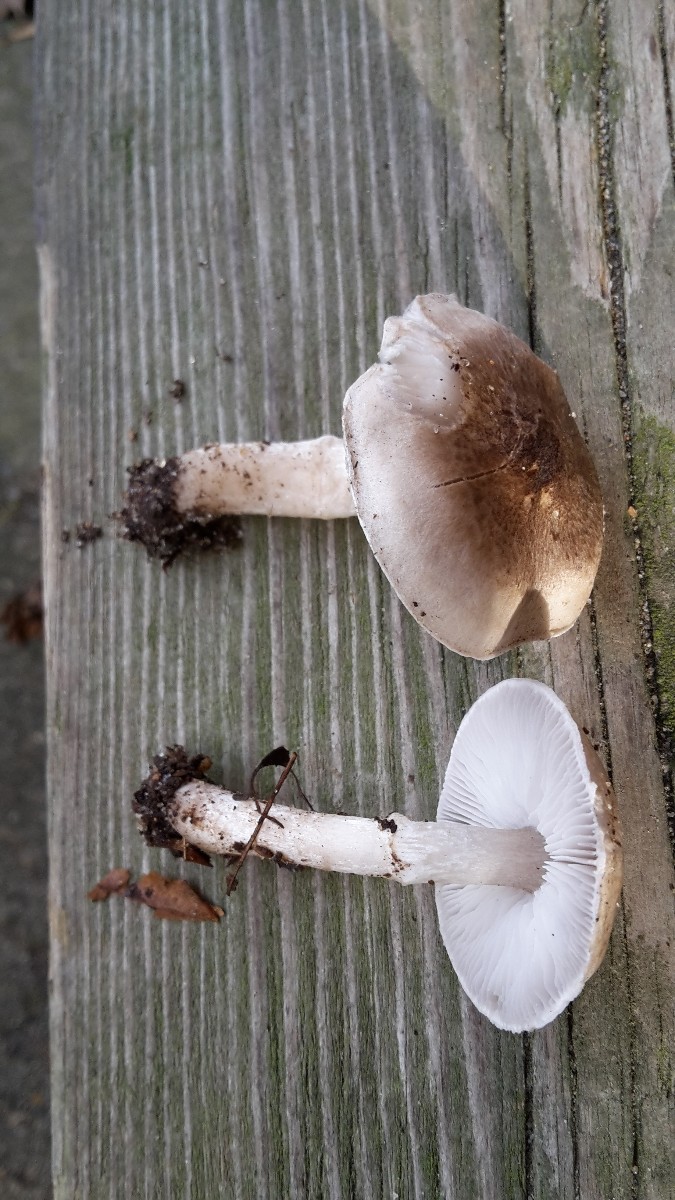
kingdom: Fungi
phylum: Basidiomycota
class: Agaricomycetes
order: Agaricales
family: Tricholomataceae
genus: Tricholoma
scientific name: Tricholoma cingulatum
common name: ring-ridderhat
